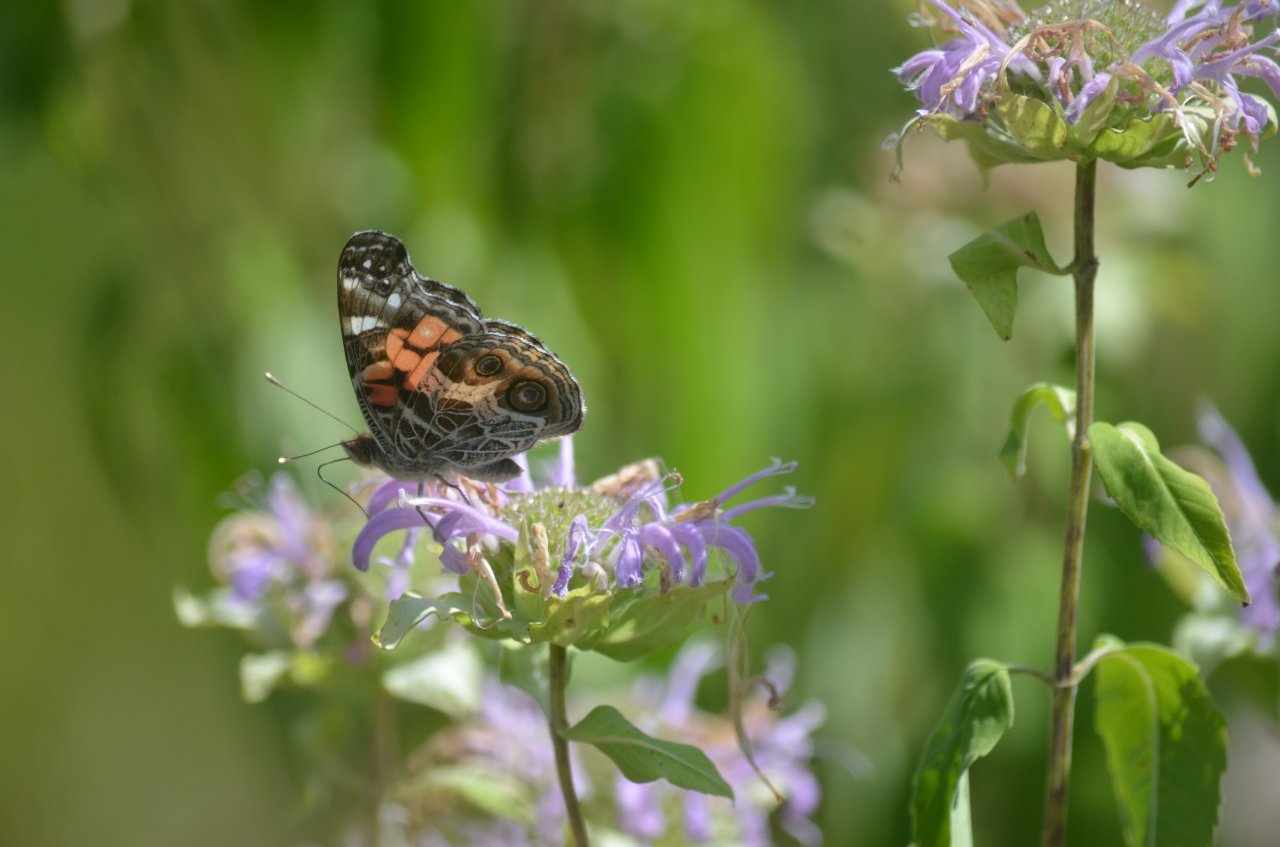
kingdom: Animalia
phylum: Arthropoda
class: Insecta
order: Lepidoptera
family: Nymphalidae
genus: Vanessa
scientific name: Vanessa virginiensis
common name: American Lady
